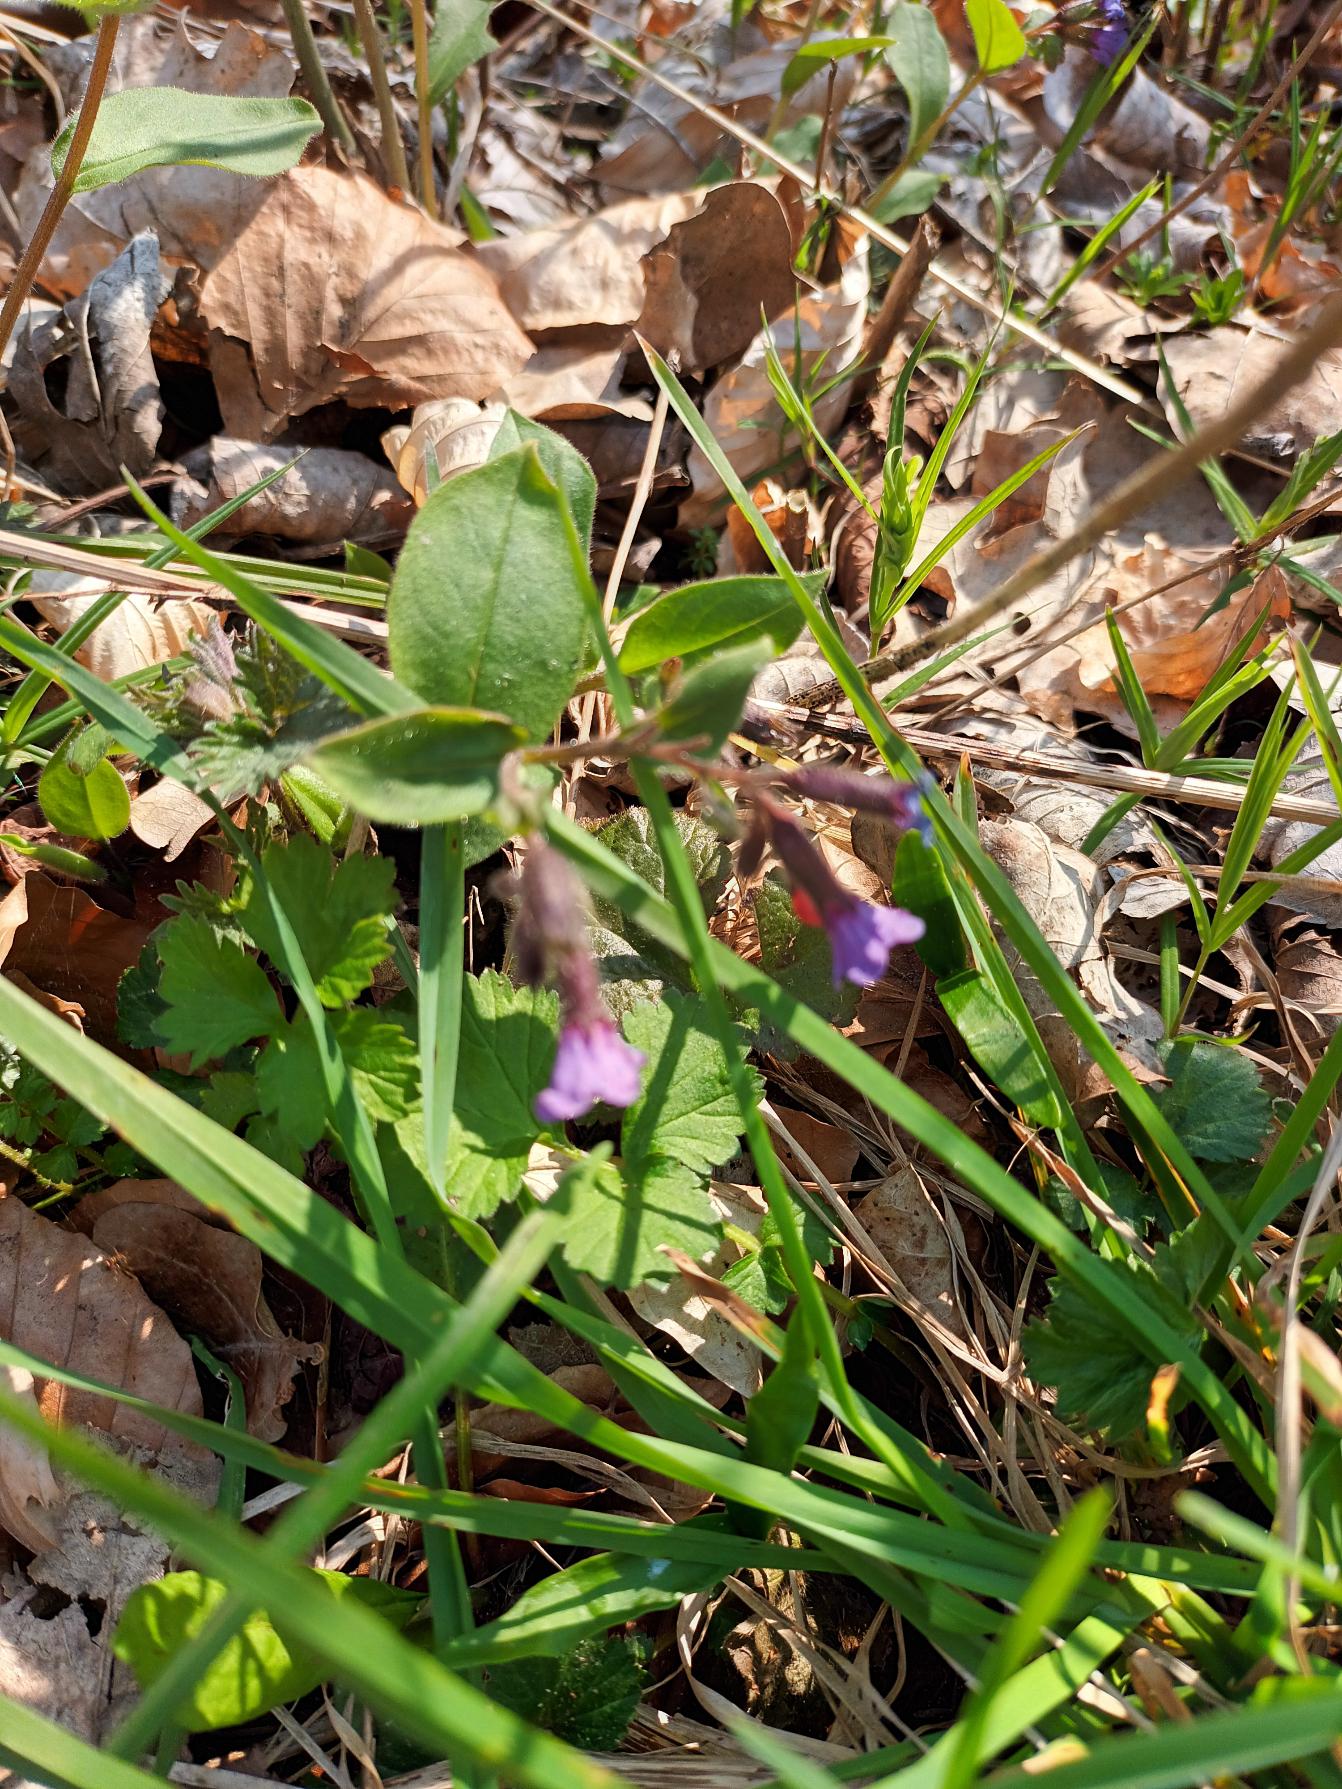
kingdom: Plantae
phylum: Tracheophyta
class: Magnoliopsida
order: Boraginales
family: Boraginaceae
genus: Pulmonaria
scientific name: Pulmonaria obscura
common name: Almindelig lungeurt
